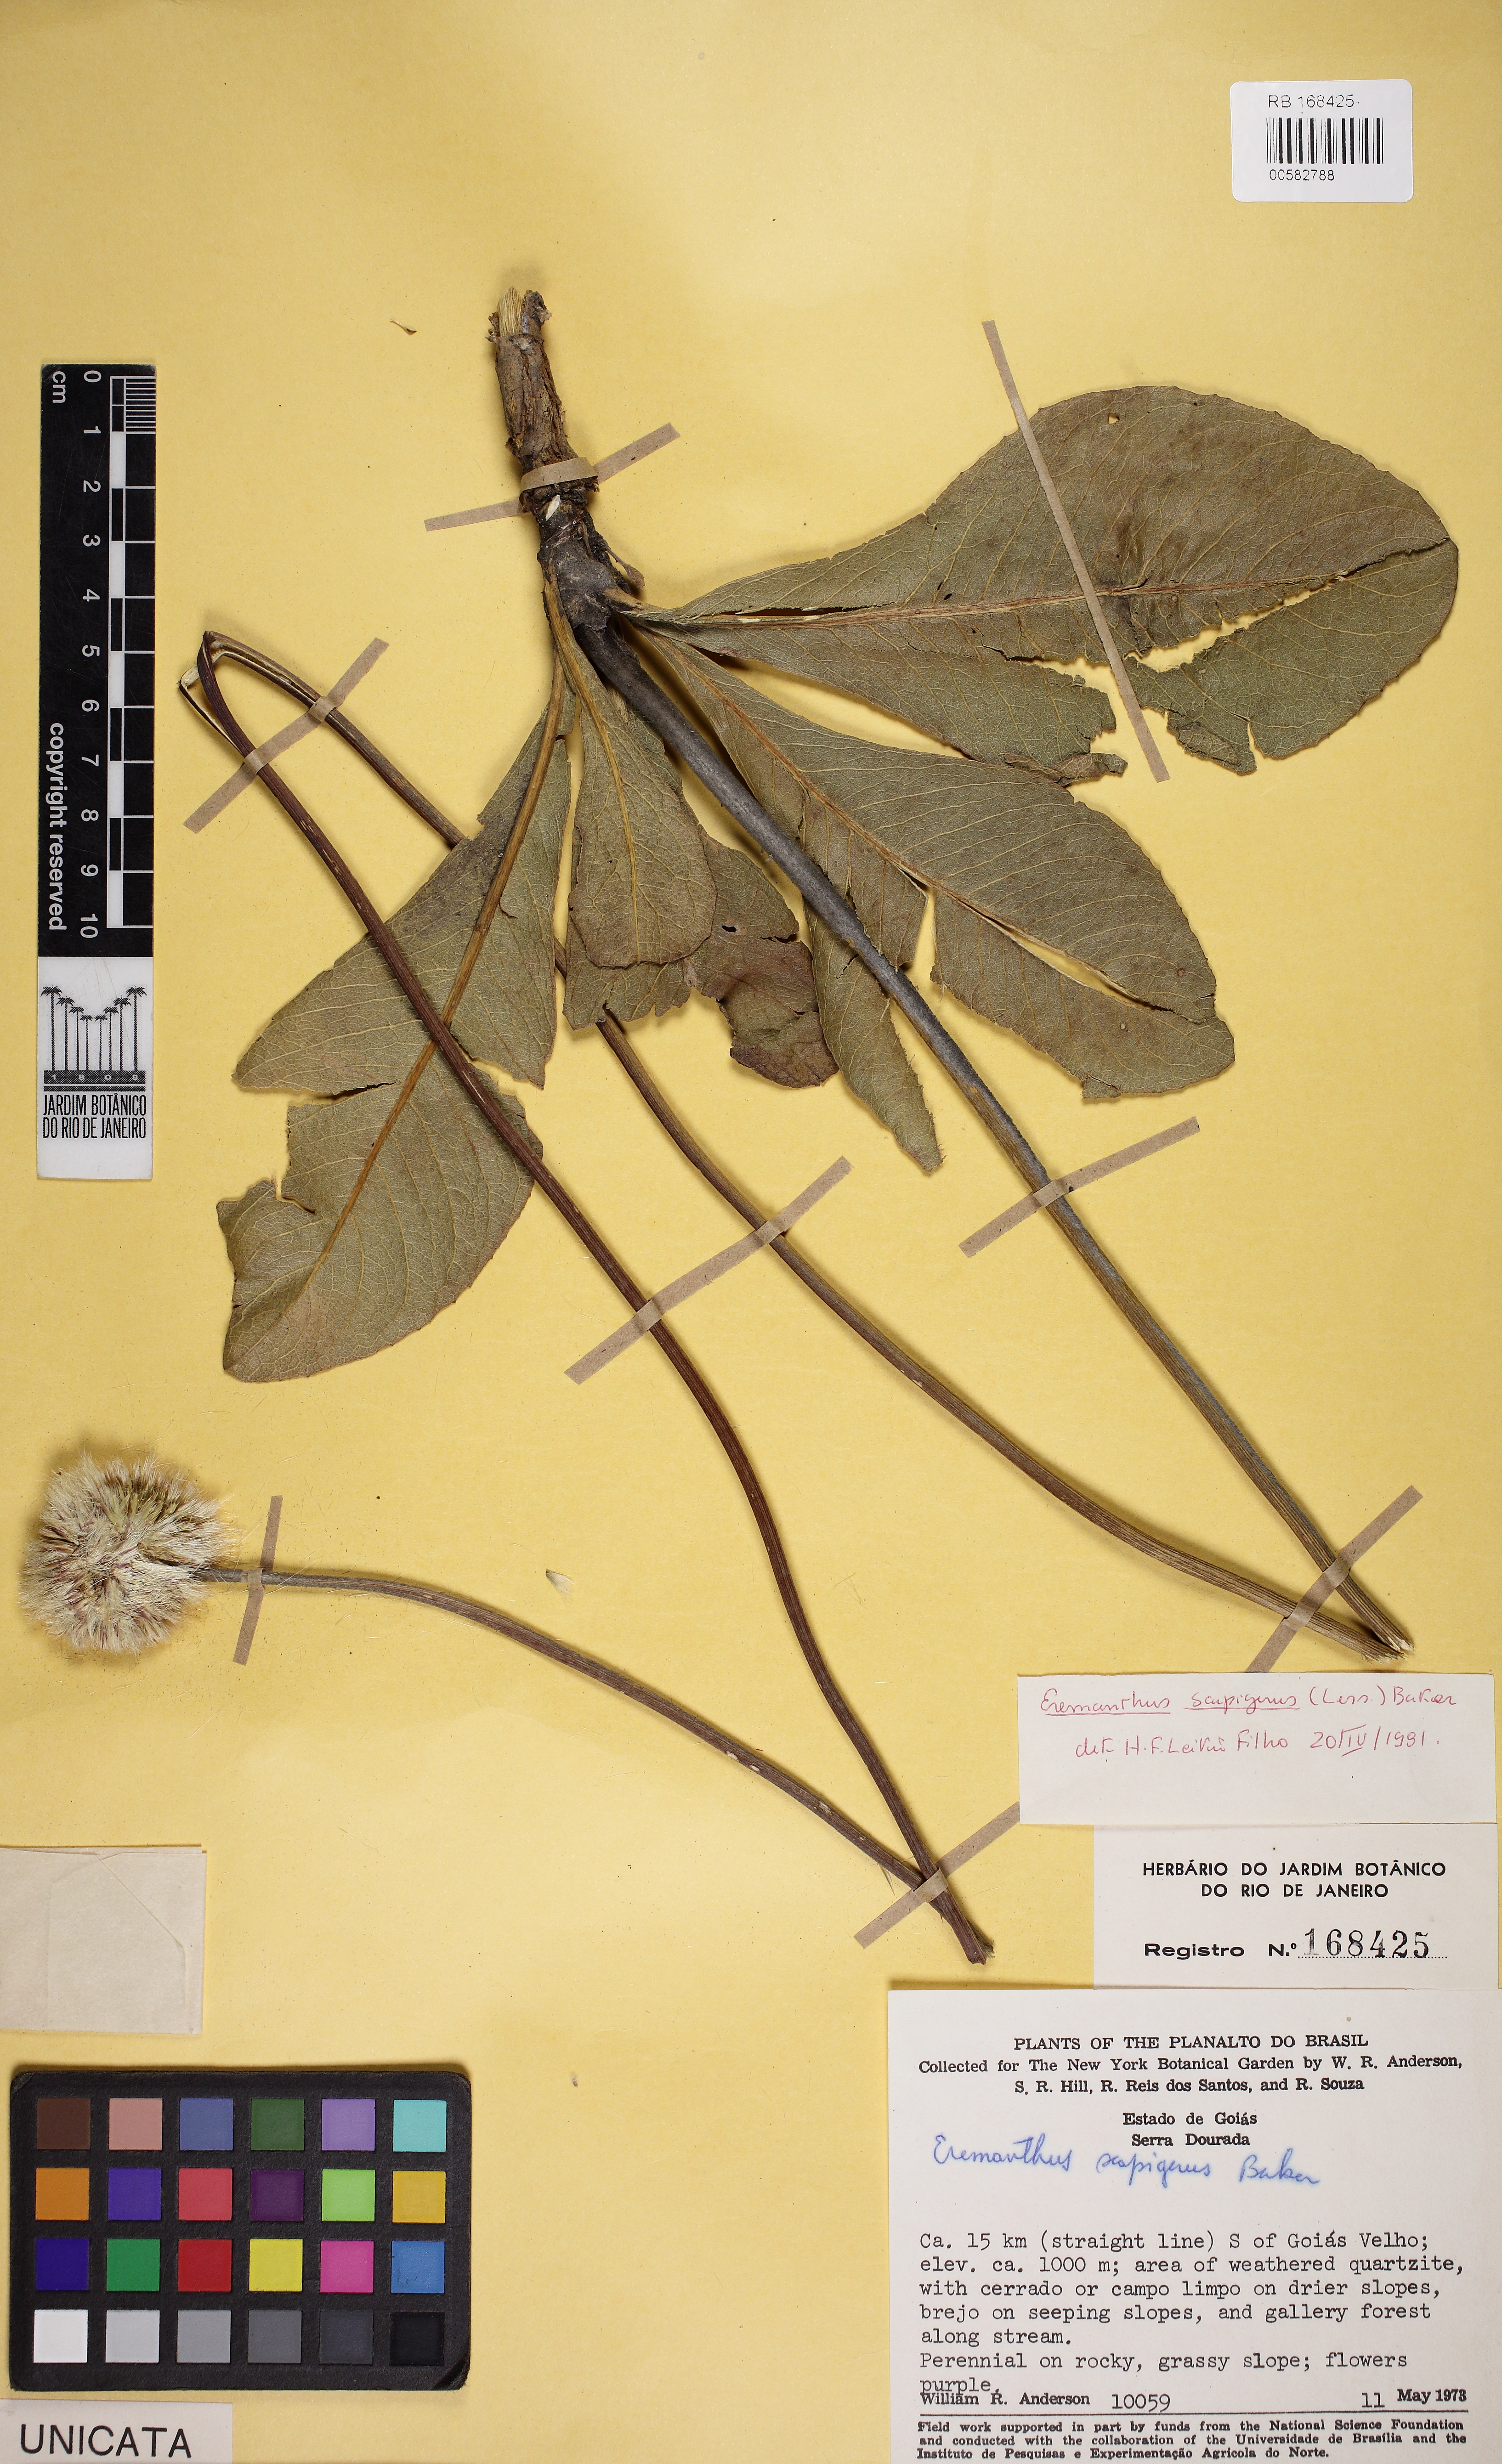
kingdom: Plantae
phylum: Tracheophyta
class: Magnoliopsida
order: Asterales
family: Asteraceae
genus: Chresta
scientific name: Chresta scapigera
